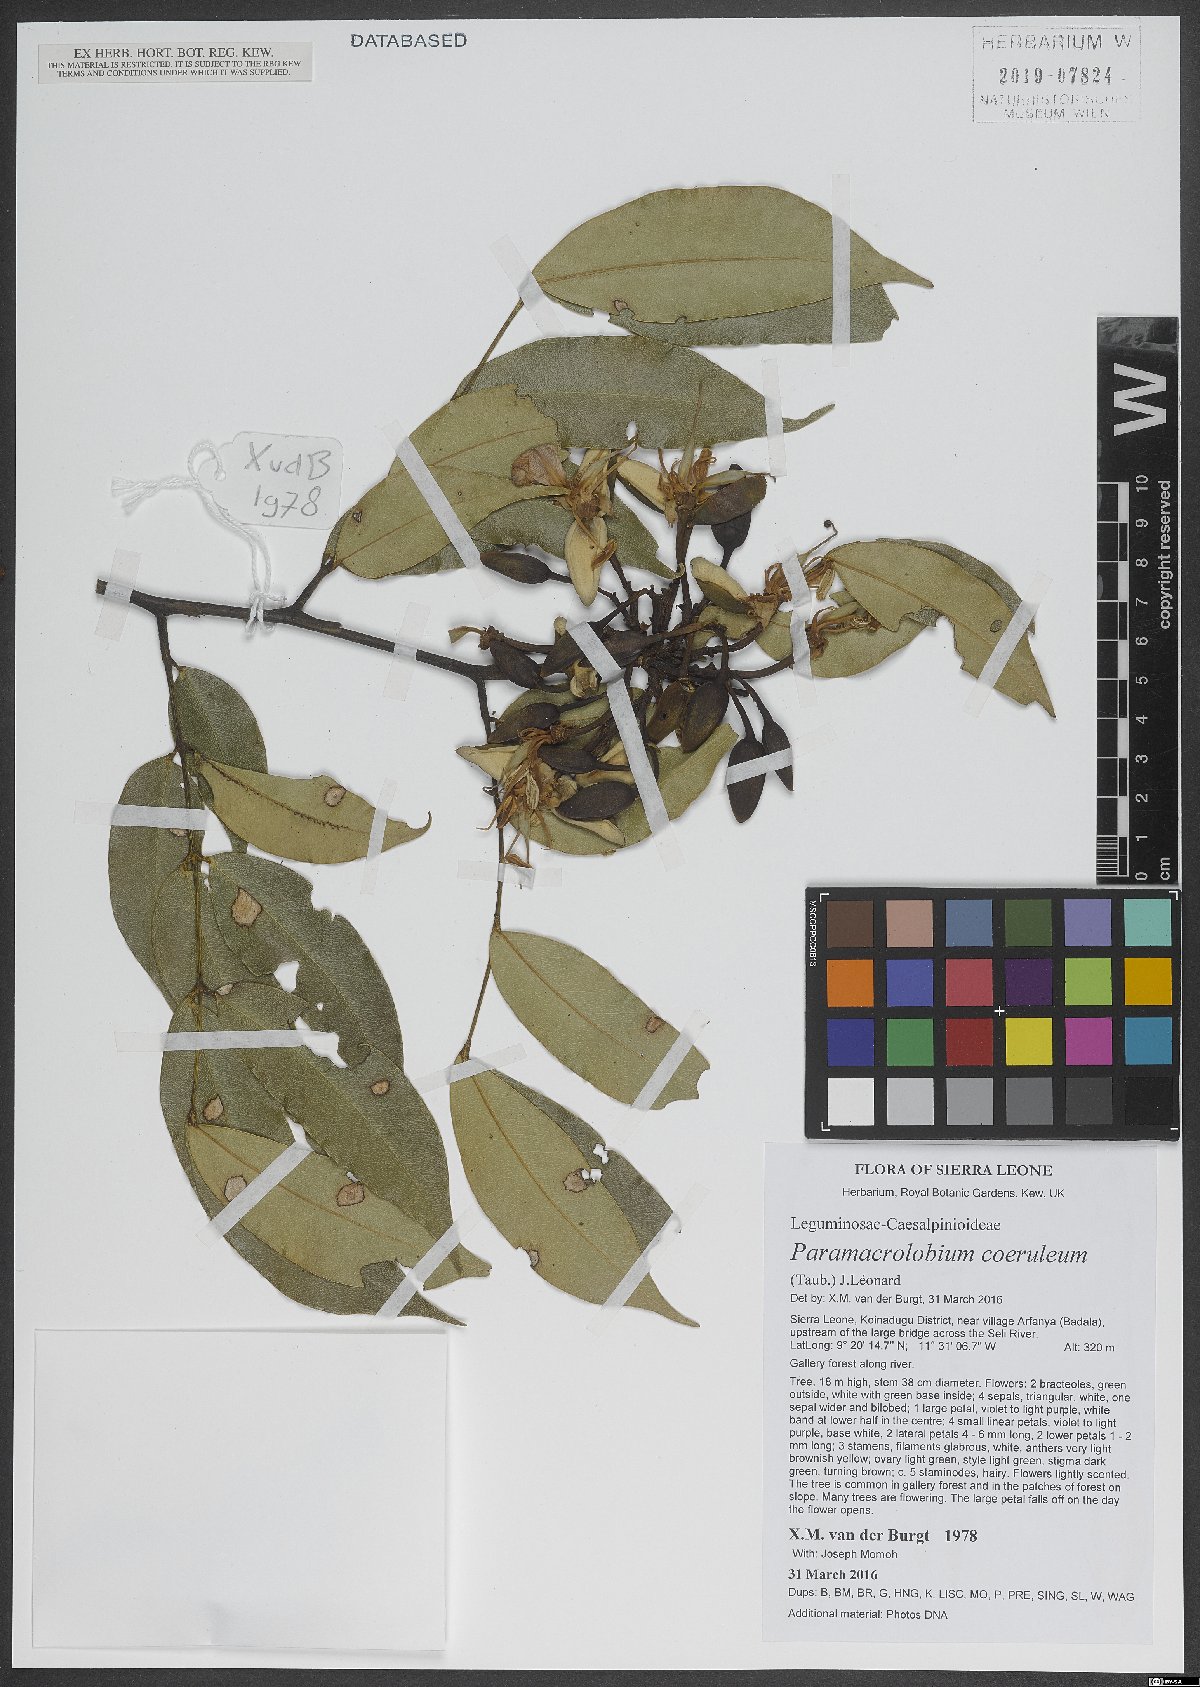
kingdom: Plantae
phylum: Tracheophyta
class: Magnoliopsida
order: Fabales
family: Fabaceae
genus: Paramacrolobium
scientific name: Paramacrolobium coeruleum
